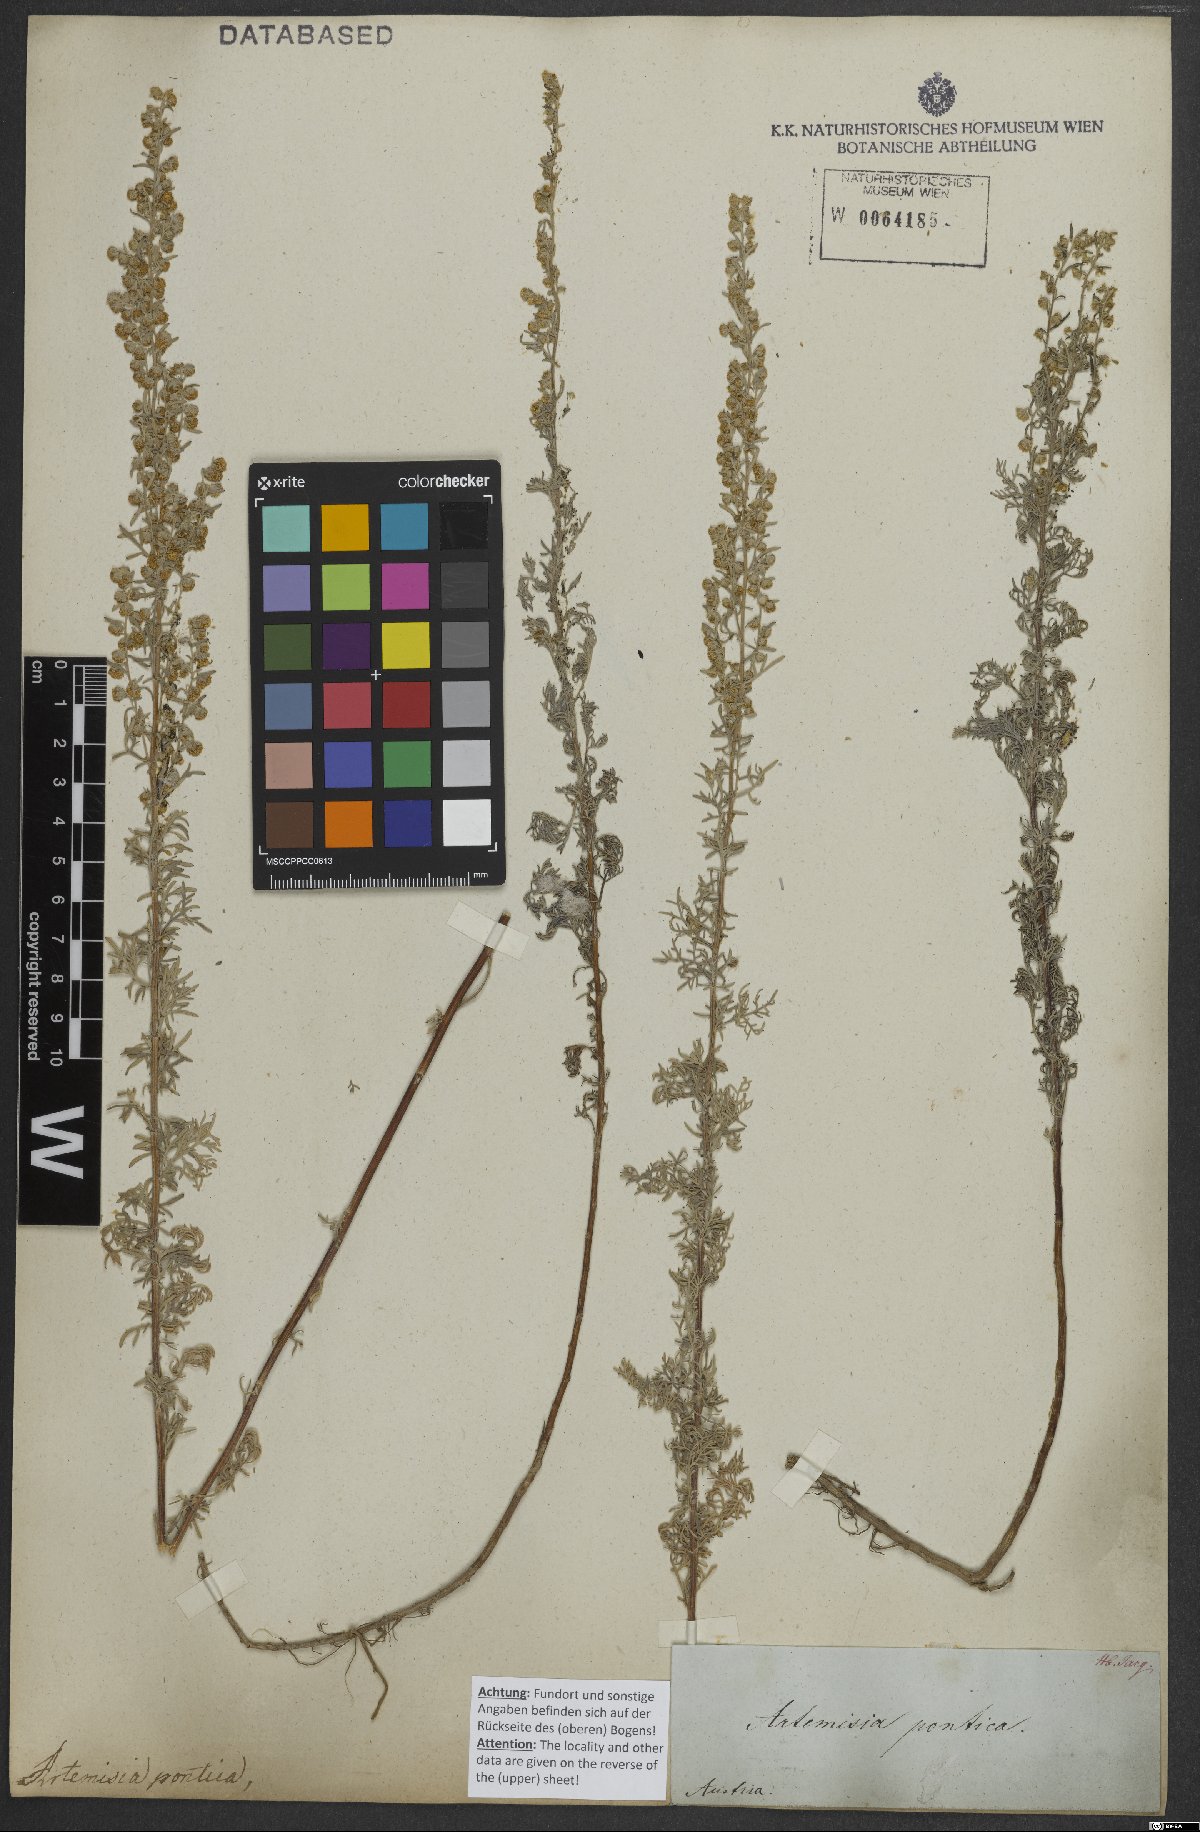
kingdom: Plantae
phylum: Tracheophyta
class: Magnoliopsida
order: Asterales
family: Asteraceae
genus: Artemisia
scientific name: Artemisia pontica
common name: Roman wormwood
